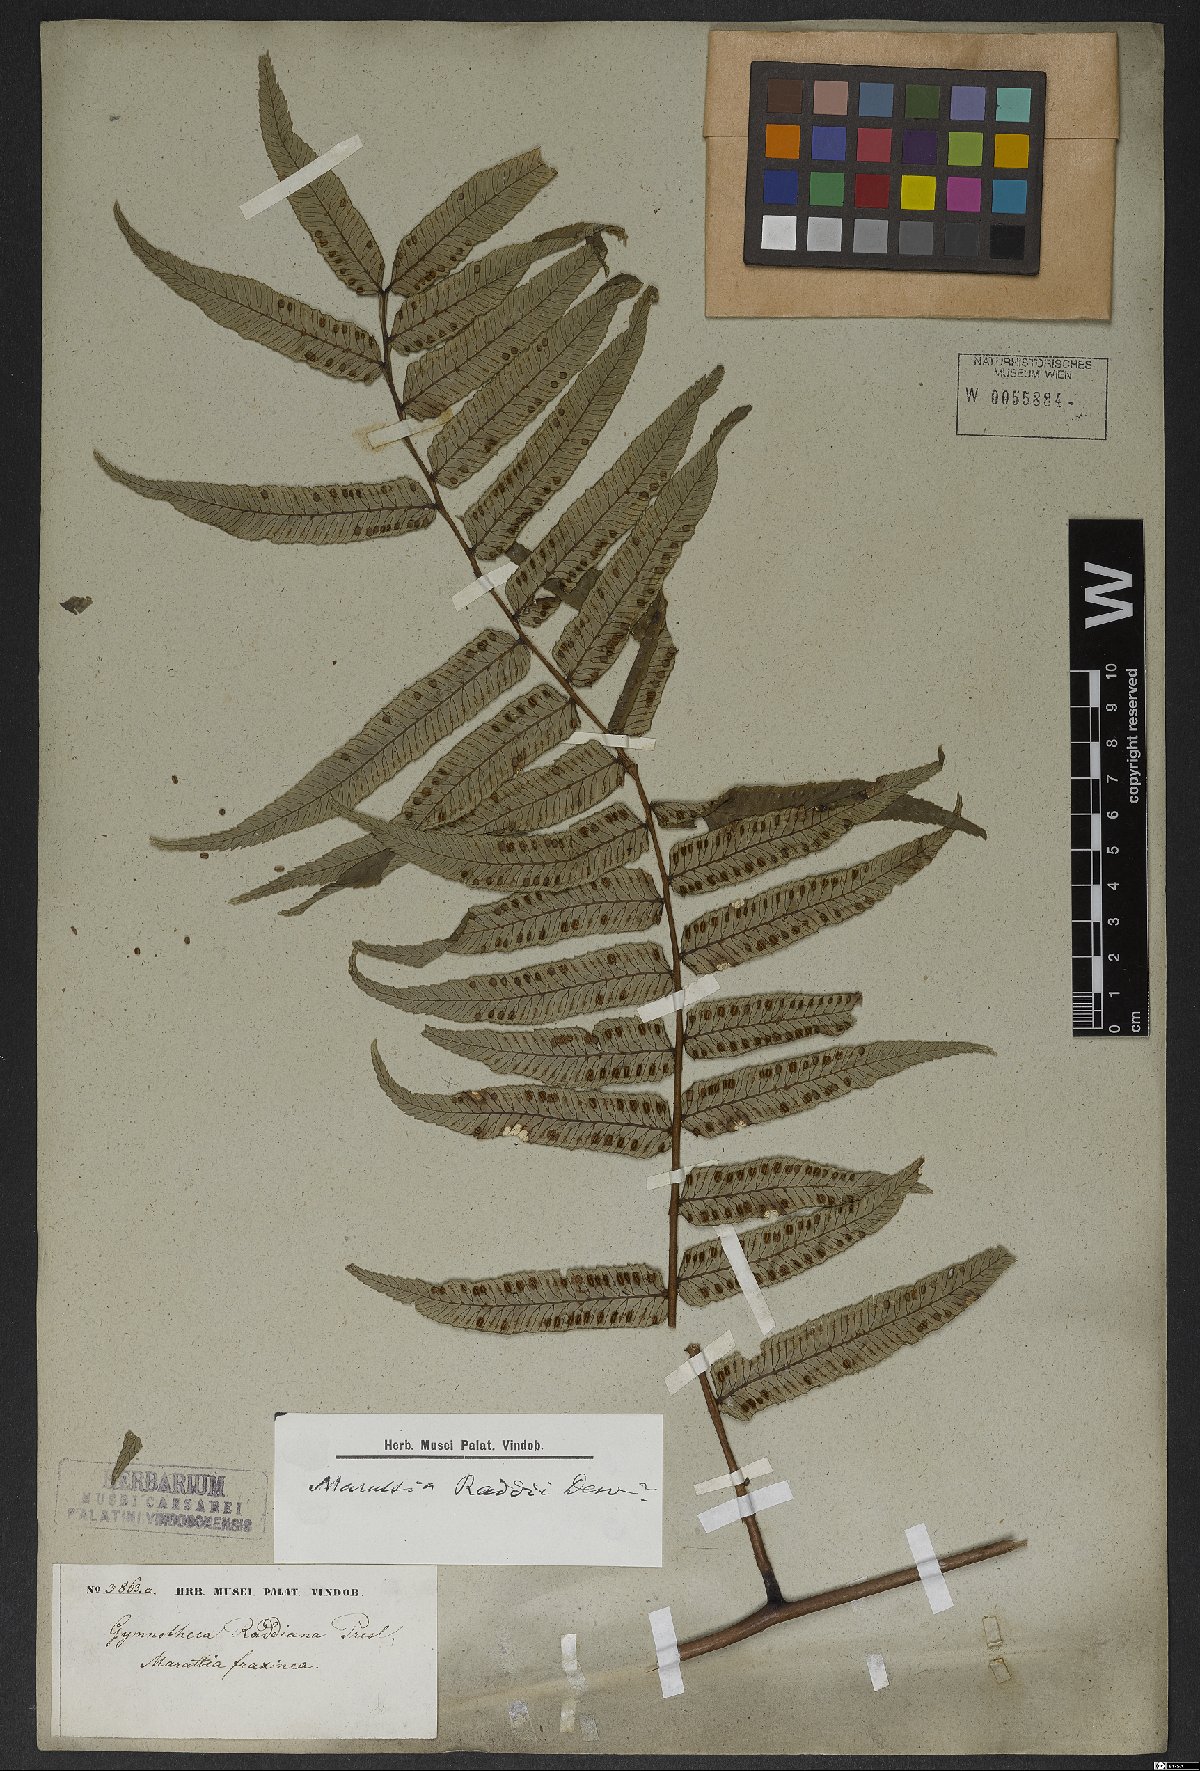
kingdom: Plantae
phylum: Tracheophyta
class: Polypodiopsida
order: Marattiales
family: Marattiaceae
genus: Eupodium
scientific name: Eupodium cicutifolium
